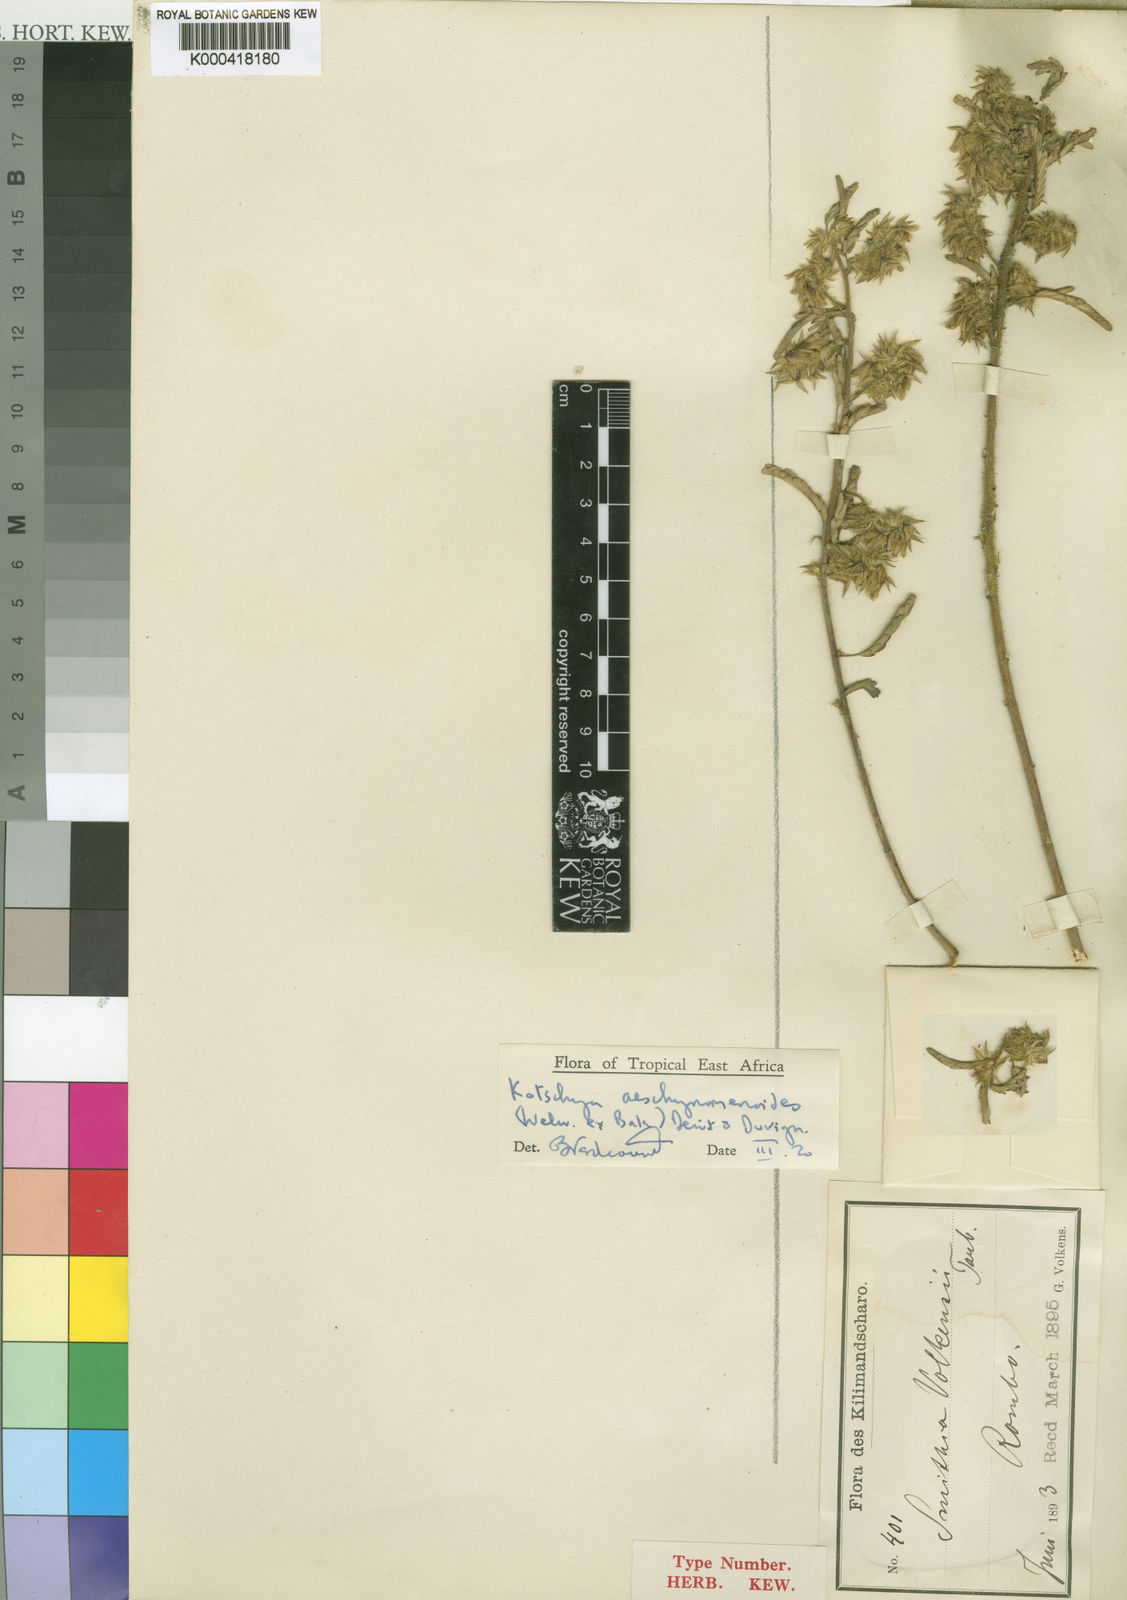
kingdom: Plantae
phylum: Tracheophyta
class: Magnoliopsida
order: Fabales
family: Fabaceae
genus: Kotschya
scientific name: Kotschya aeschynomenoides
